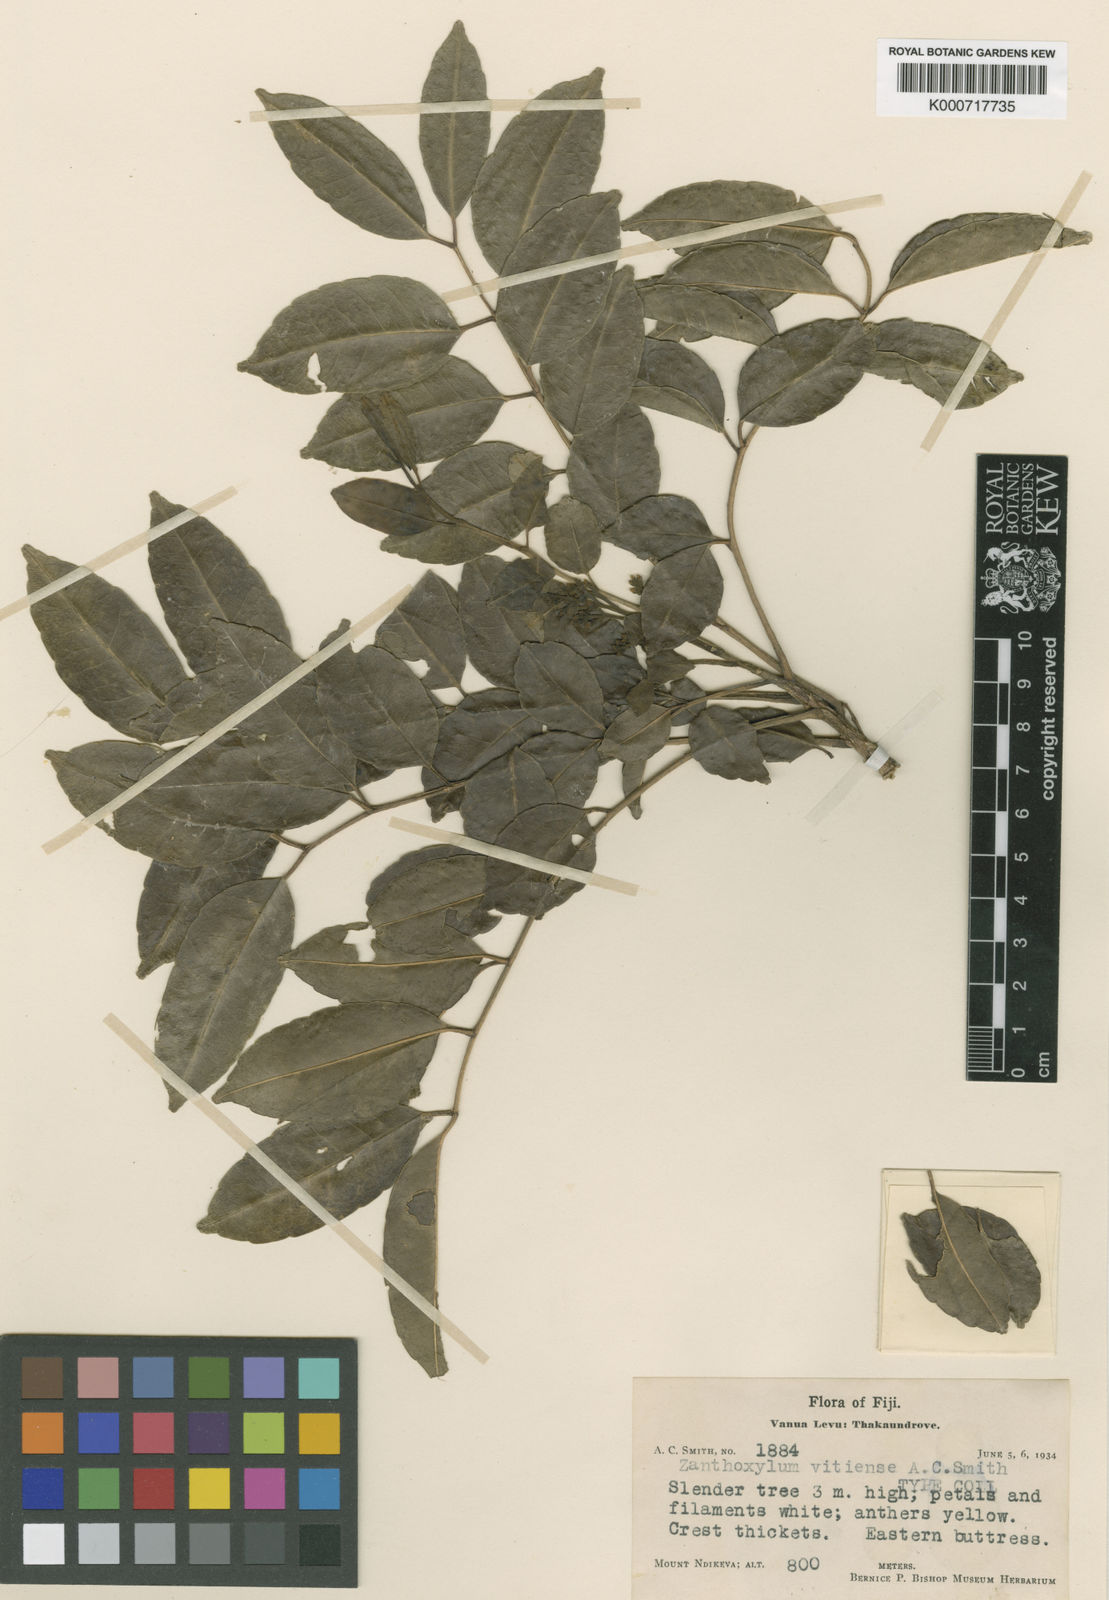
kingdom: Plantae
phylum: Tracheophyta
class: Magnoliopsida
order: Sapindales
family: Rutaceae
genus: Zanthoxylum
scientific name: Zanthoxylum vitiense
